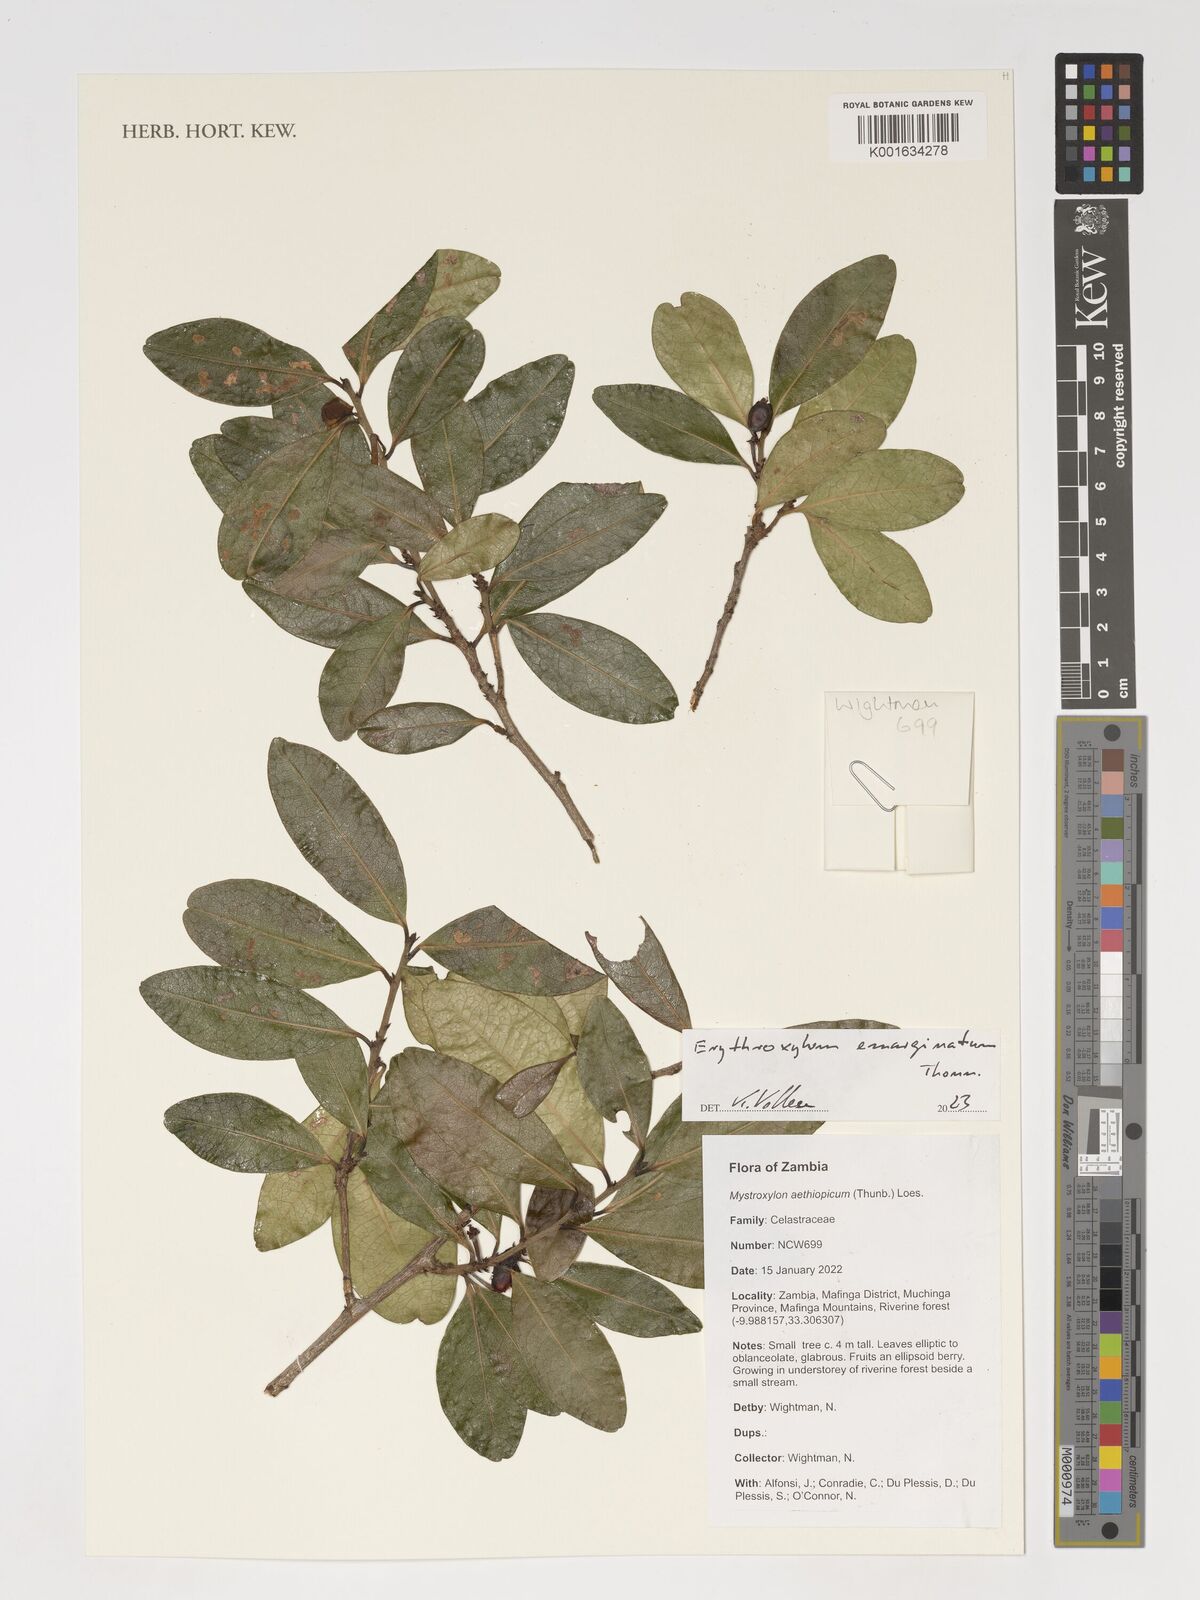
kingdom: Plantae
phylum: Tracheophyta
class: Magnoliopsida
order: Malpighiales
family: Erythroxylaceae
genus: Erythroxylum
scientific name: Erythroxylum emarginatum
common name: African coca-tree
